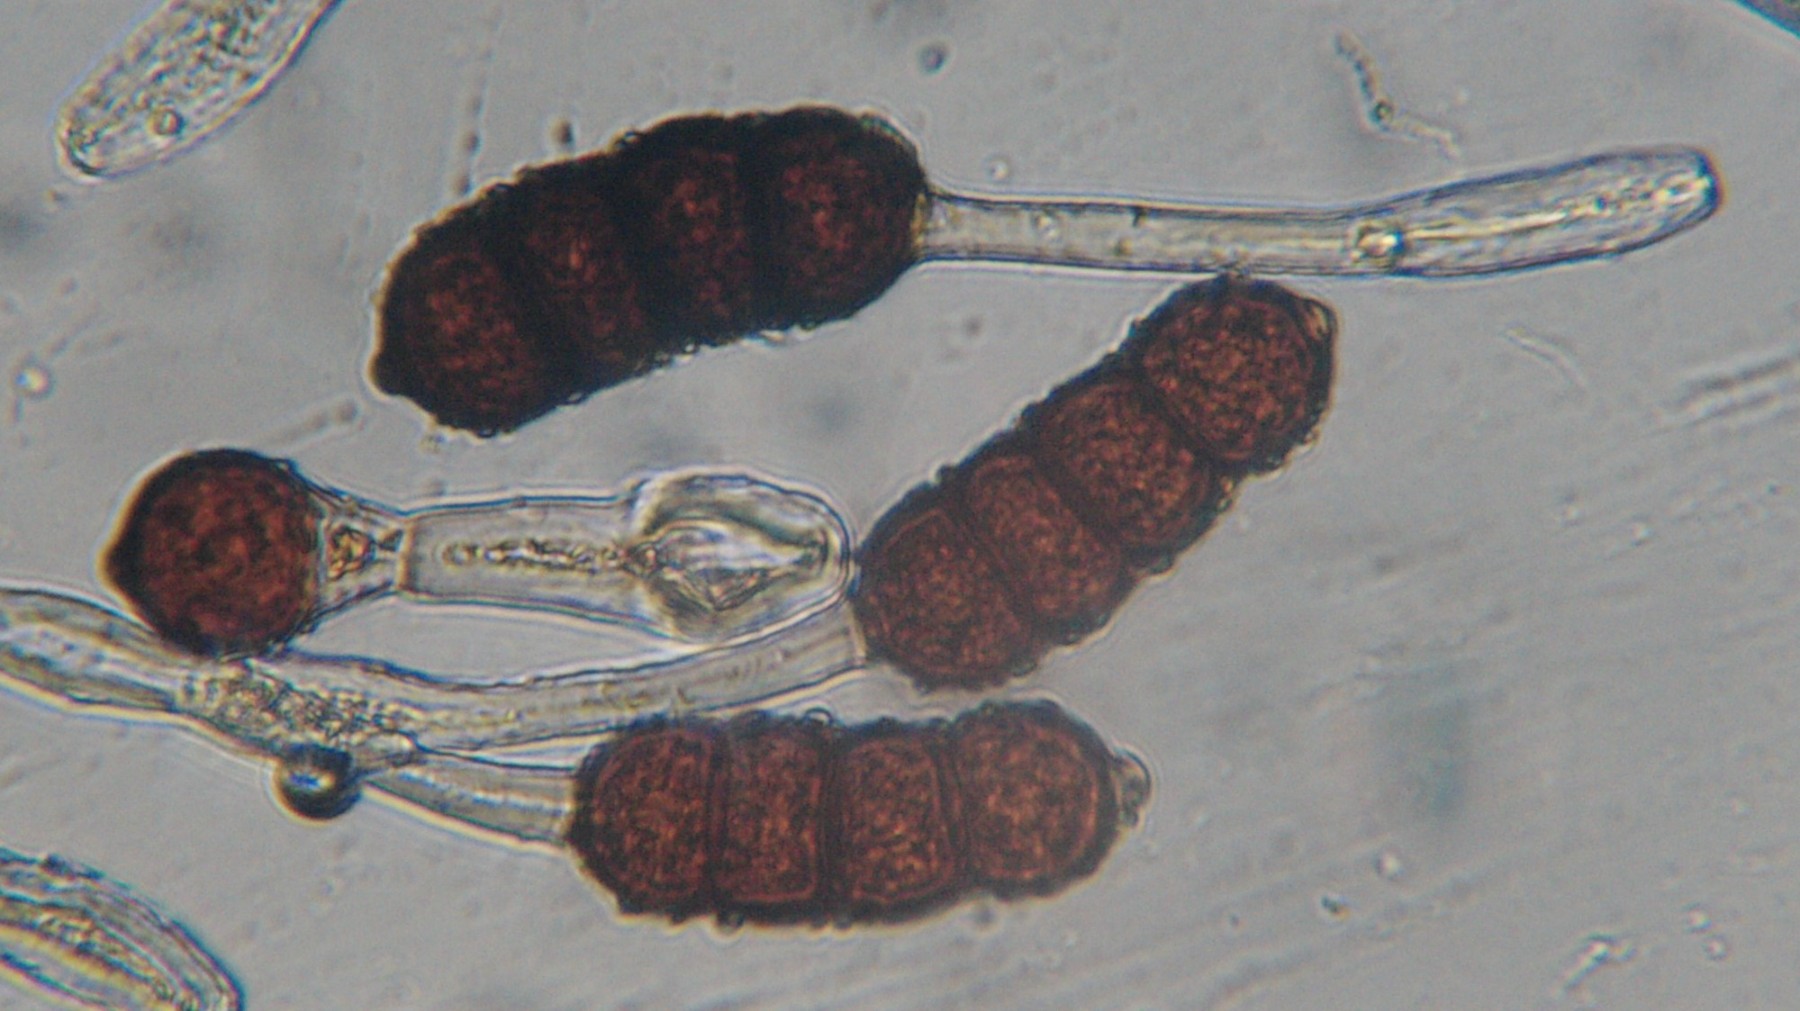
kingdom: Fungi
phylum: Basidiomycota
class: Pucciniomycetes
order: Pucciniales
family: Phragmidiaceae
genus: Phragmidium
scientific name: Phragmidium violaceum
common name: violet flercellerust
